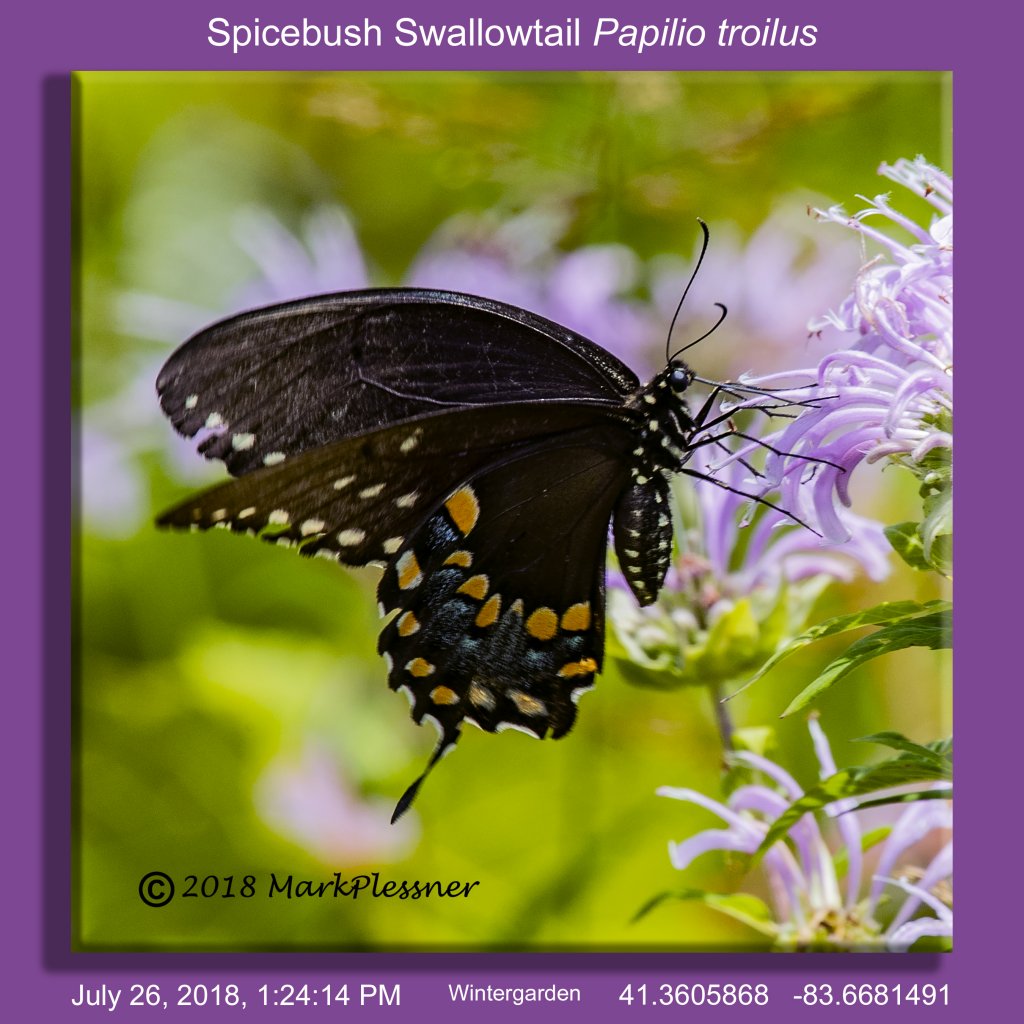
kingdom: Animalia
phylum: Arthropoda
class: Insecta
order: Lepidoptera
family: Papilionidae
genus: Pterourus
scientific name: Pterourus troilus
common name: Spicebush Swallowtail
